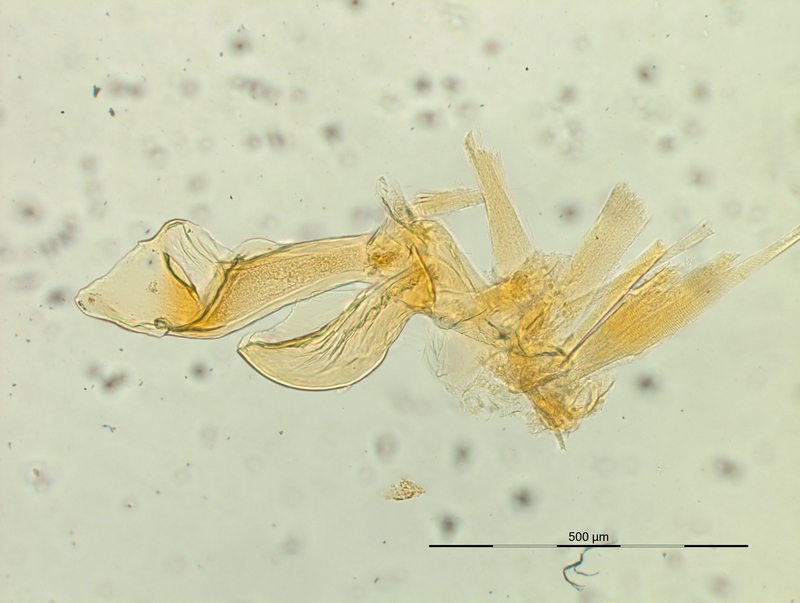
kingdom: Animalia
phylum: Arthropoda
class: Diplopoda
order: Chordeumatida
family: Craspedosomatidae
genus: Listrocheiritium
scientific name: Listrocheiritium noricum
